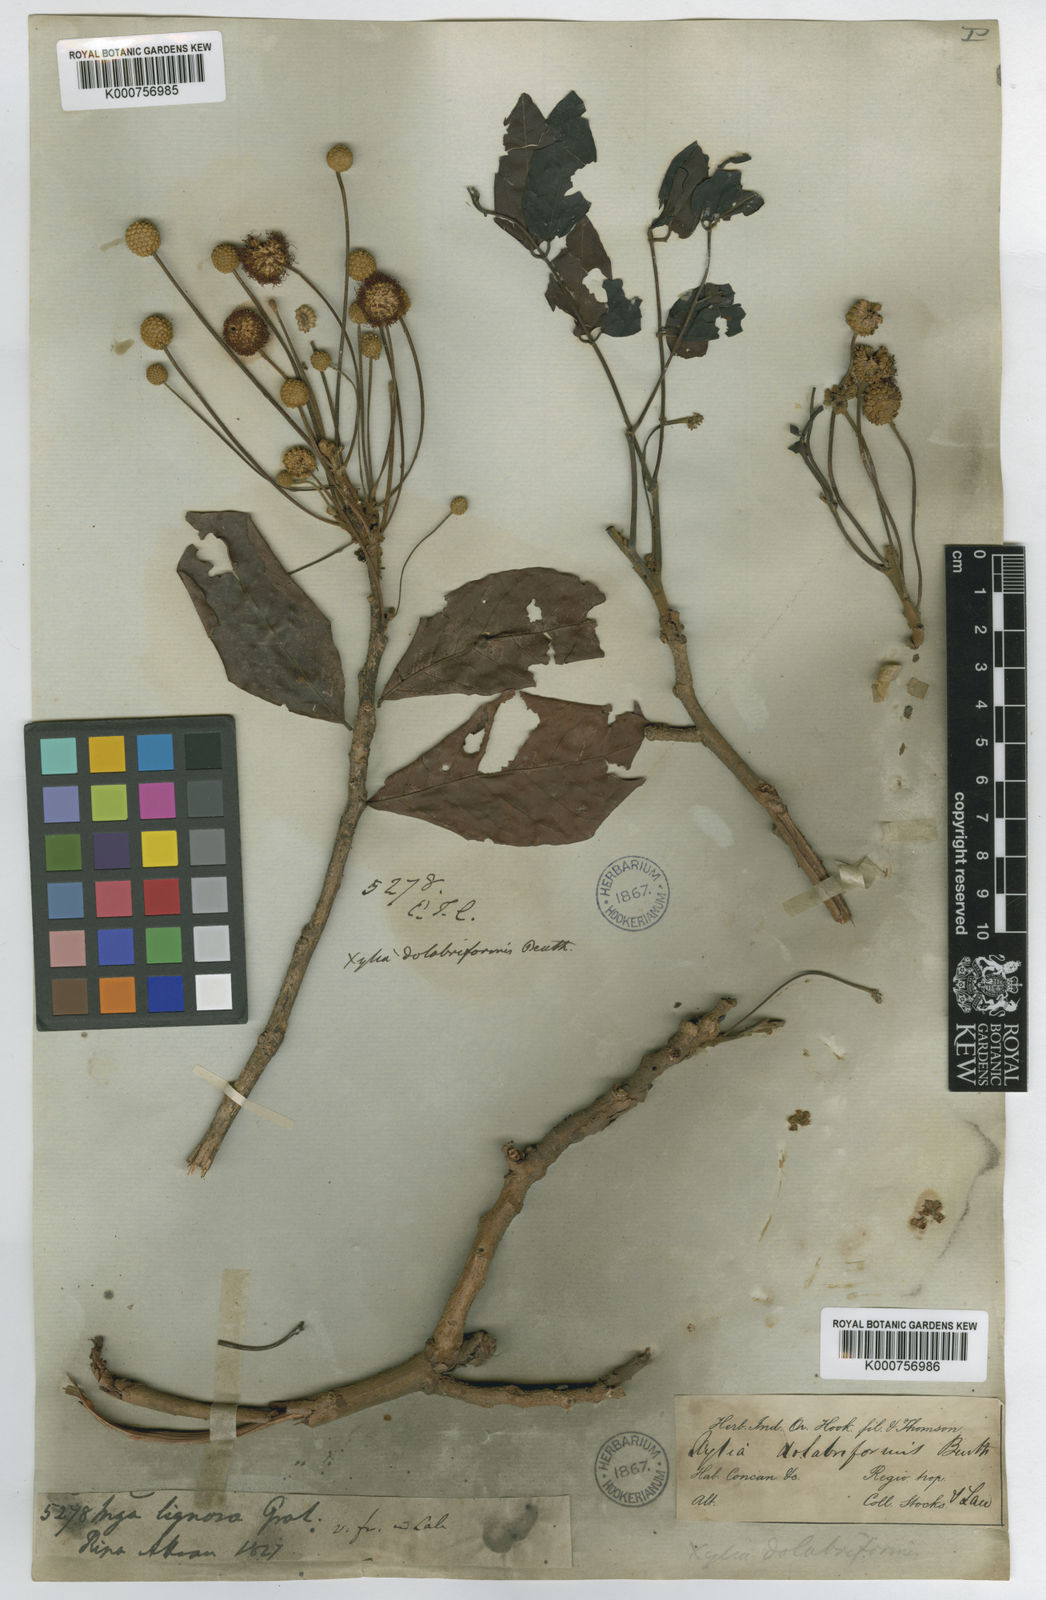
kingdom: Plantae
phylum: Tracheophyta
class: Magnoliopsida
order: Fabales
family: Fabaceae
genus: Xylia
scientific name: Xylia
